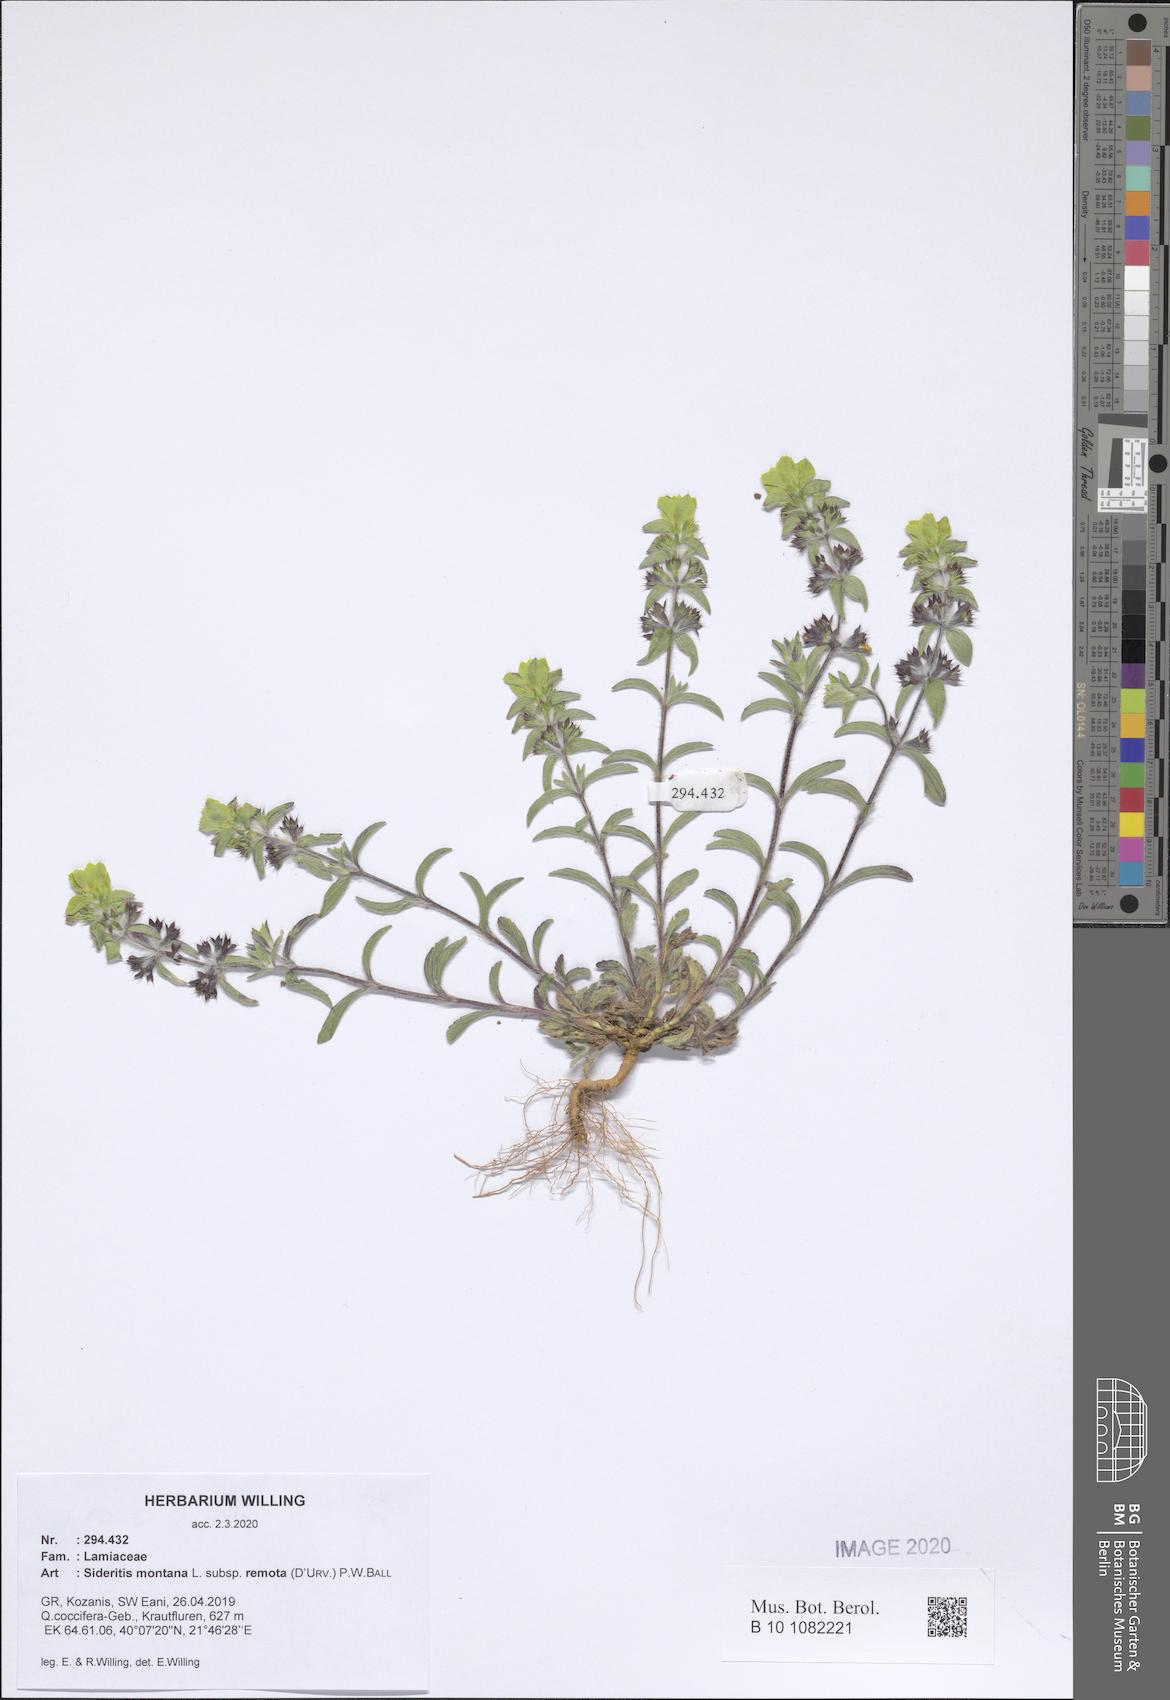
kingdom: Plantae
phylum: Tracheophyta
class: Magnoliopsida
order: Lamiales
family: Lamiaceae
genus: Sideritis
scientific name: Sideritis montana
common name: Mountain ironwort
